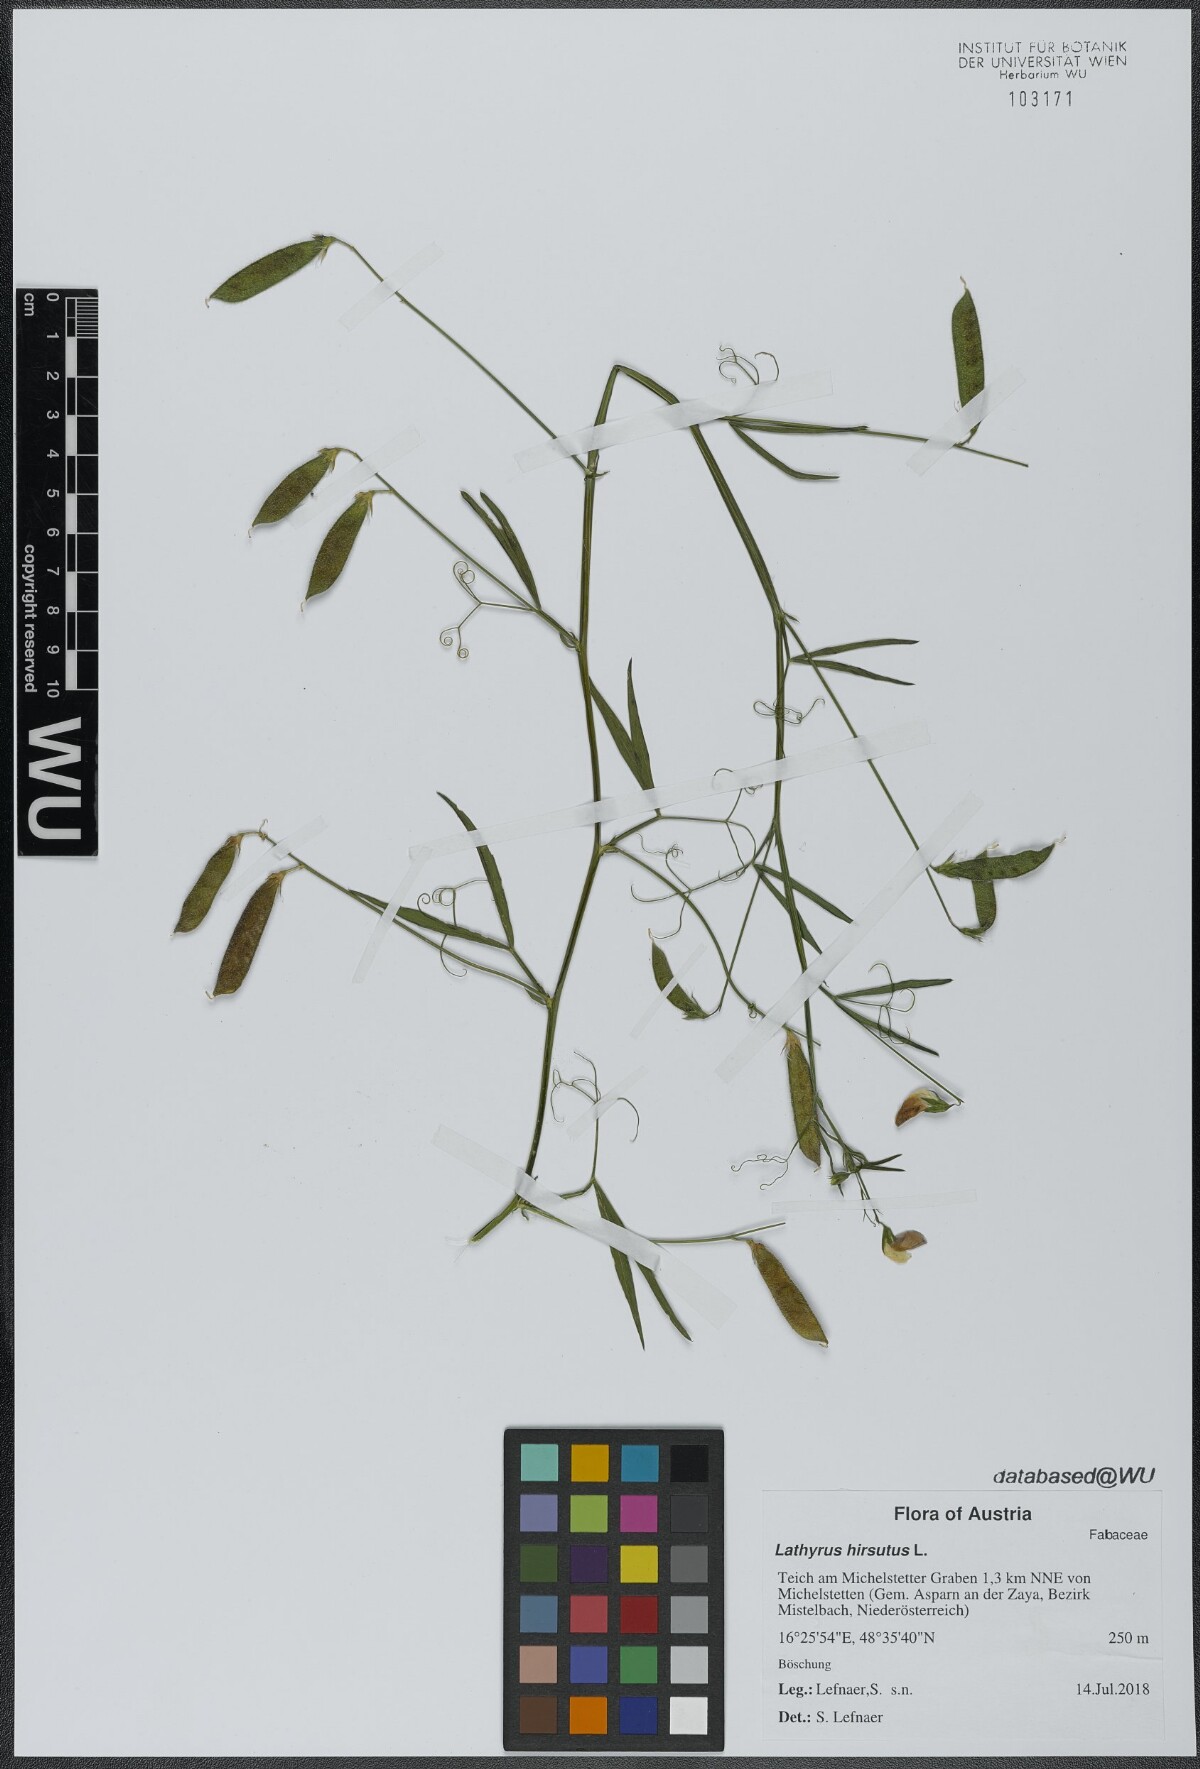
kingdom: Plantae
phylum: Tracheophyta
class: Magnoliopsida
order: Fabales
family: Fabaceae
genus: Lathyrus
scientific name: Lathyrus hirsutus
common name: Hairy vetchling
